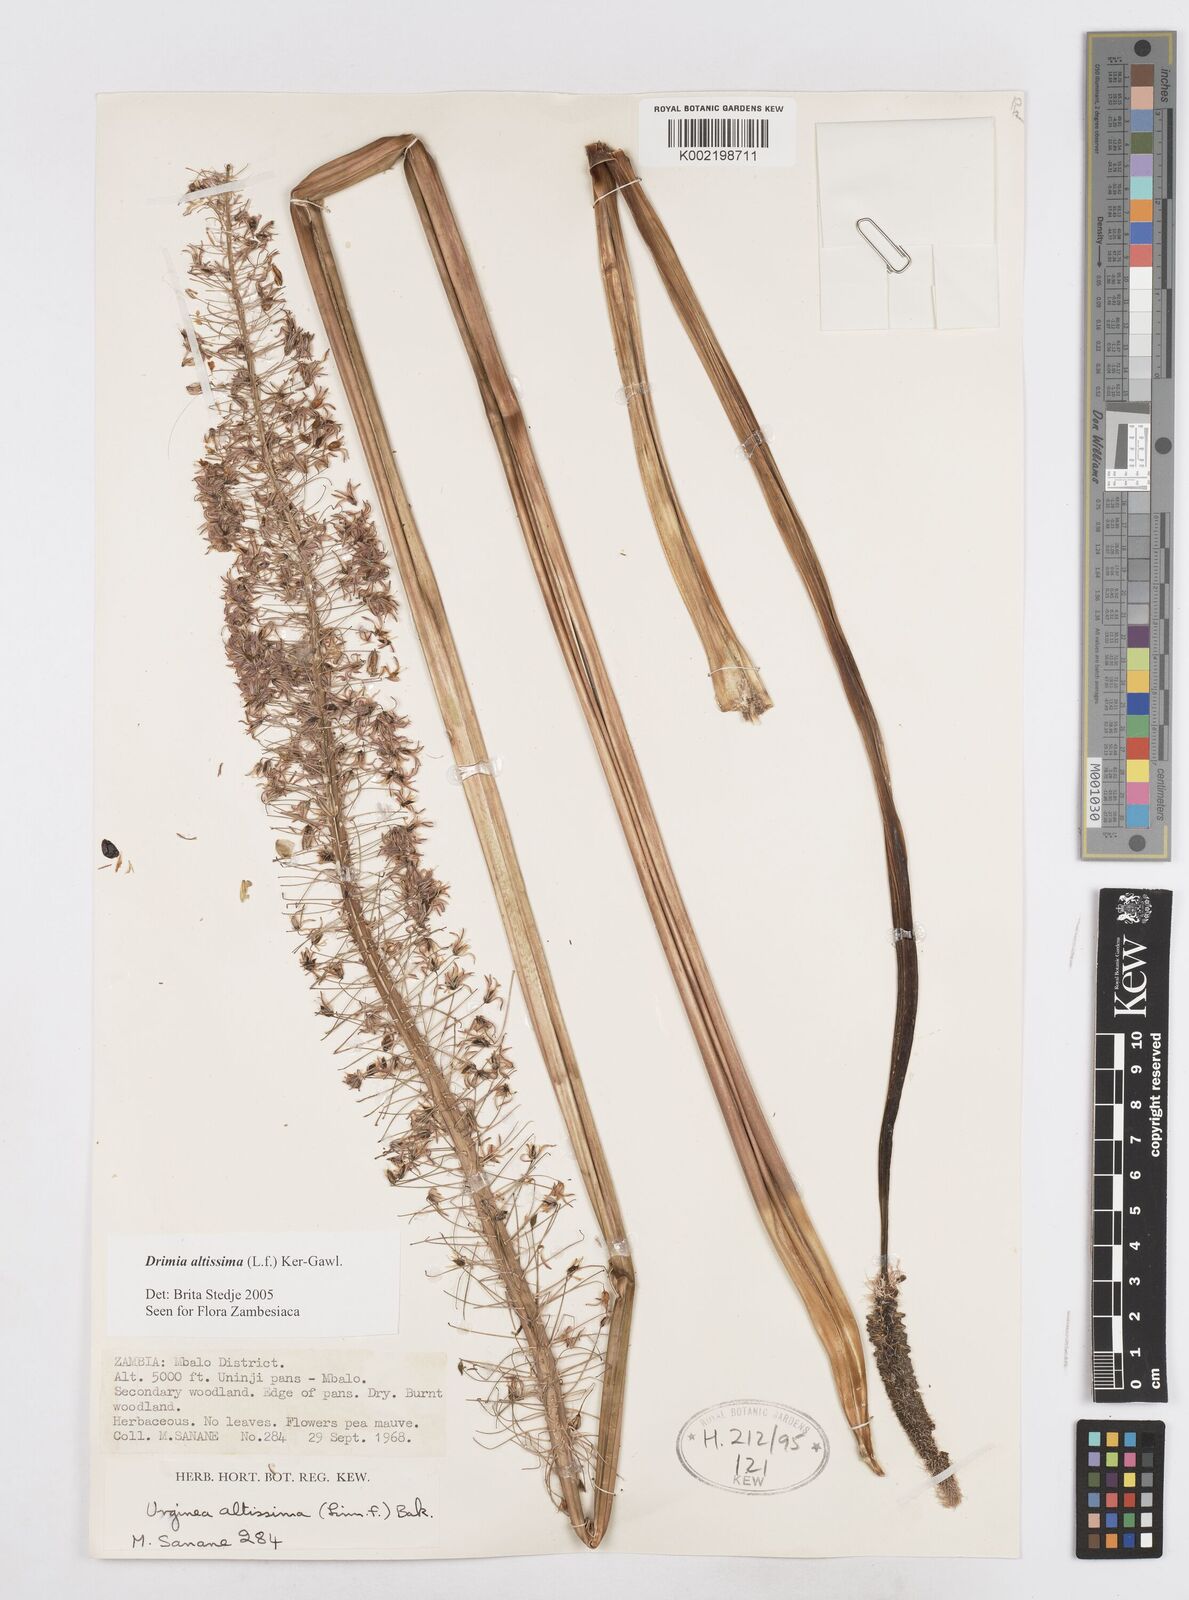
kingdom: Plantae
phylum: Tracheophyta
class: Liliopsida
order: Asparagales
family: Asparagaceae
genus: Drimia
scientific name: Drimia
